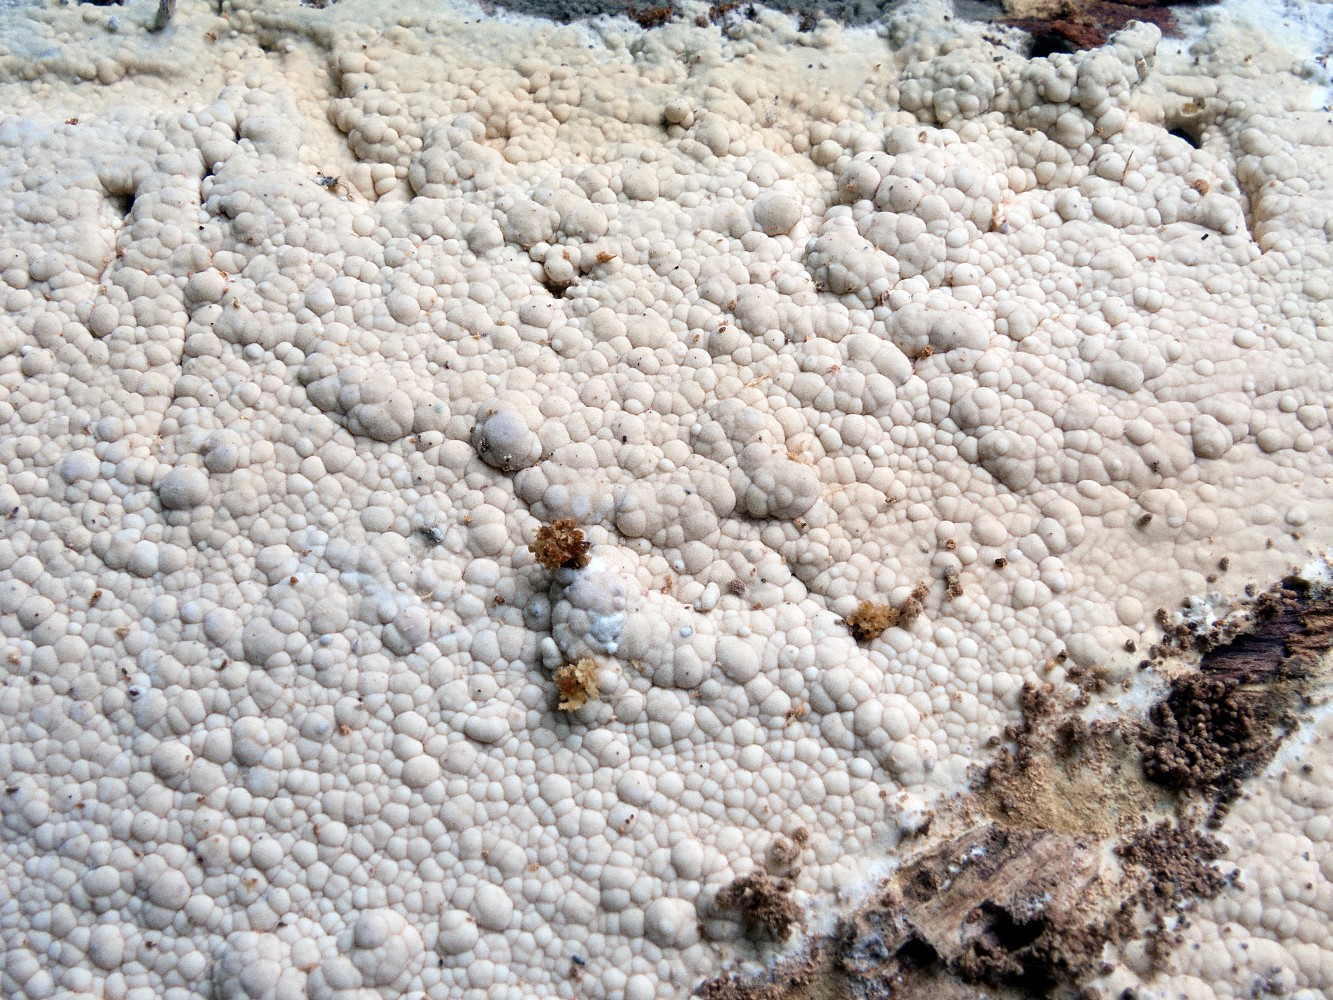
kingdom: Fungi
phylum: Basidiomycota
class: Agaricomycetes
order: Russulales
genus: Gloeohypochnicium
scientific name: Gloeohypochnicium analogum
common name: frugt-kalkskind
